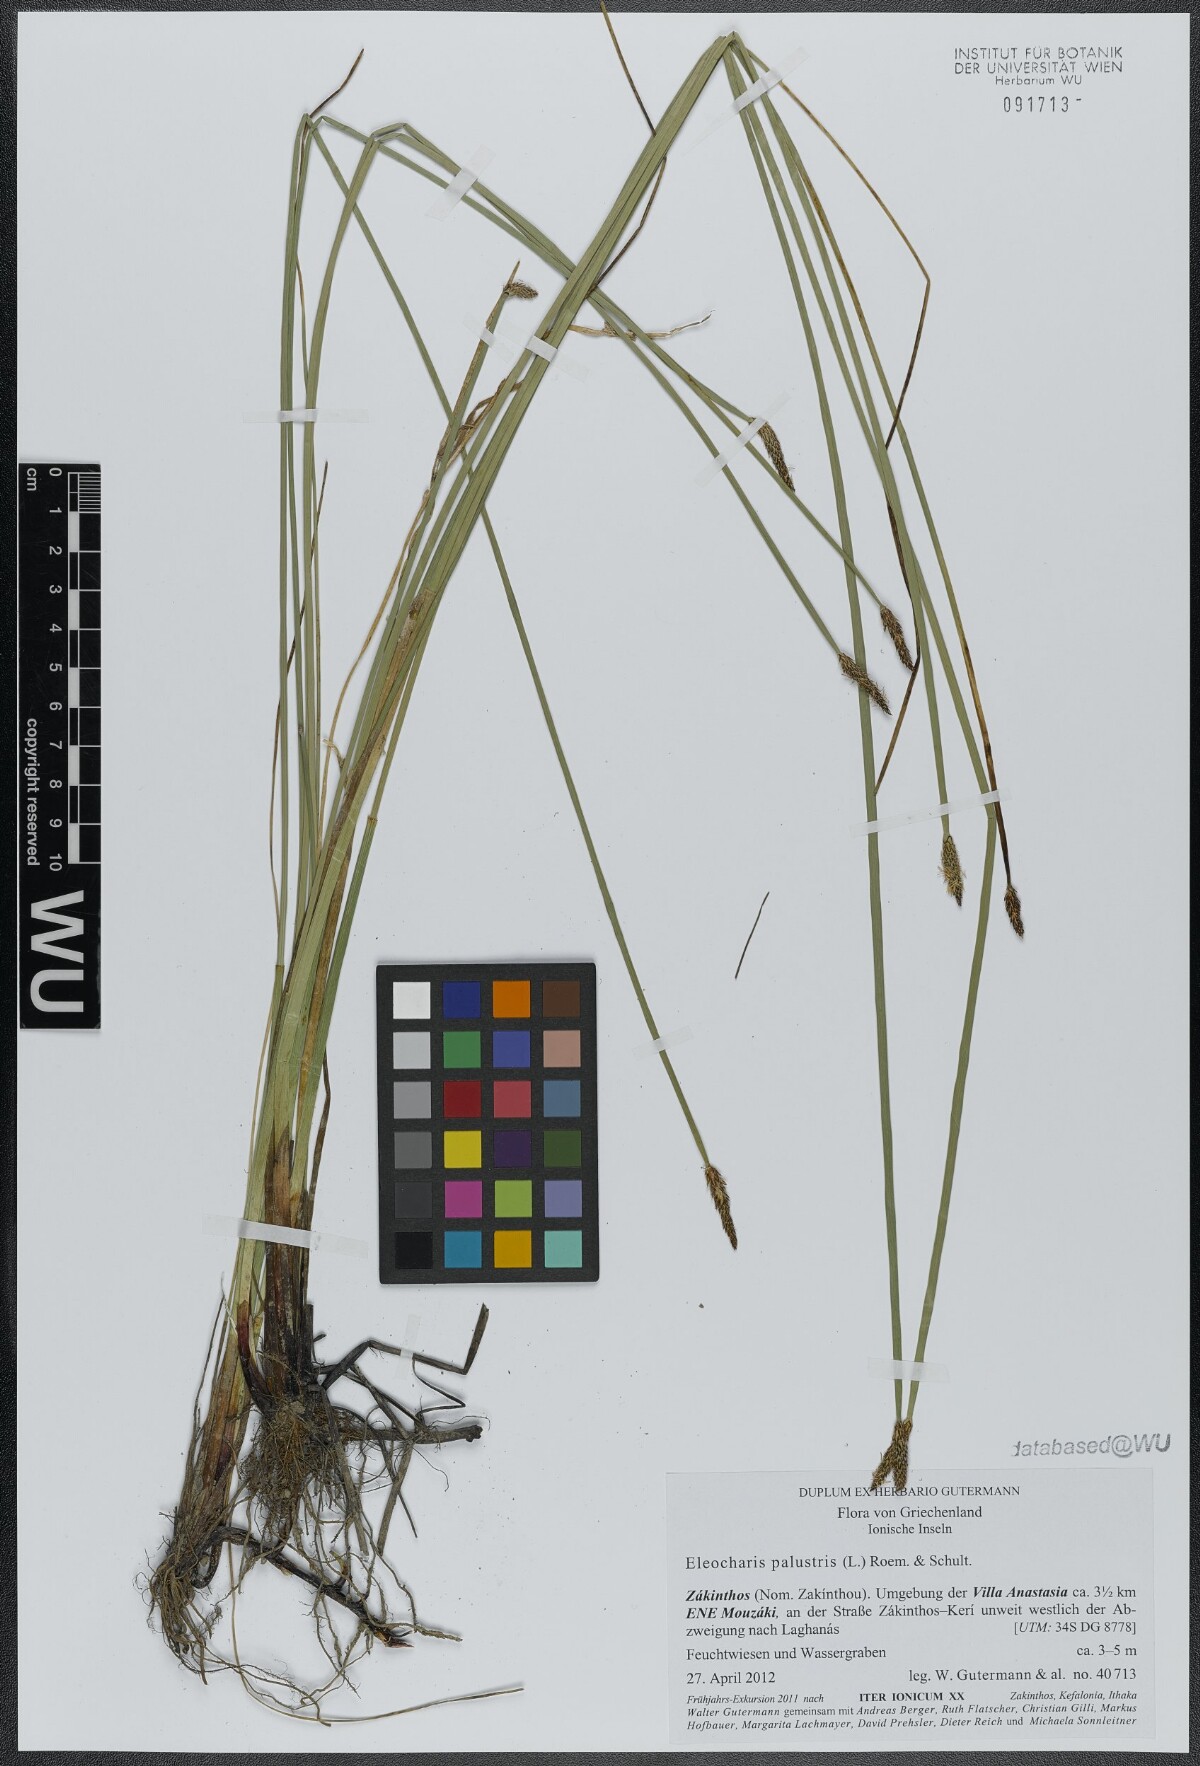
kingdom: Plantae
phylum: Tracheophyta
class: Liliopsida
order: Poales
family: Cyperaceae
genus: Eleocharis
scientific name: Eleocharis palustris
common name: Common spike-rush
